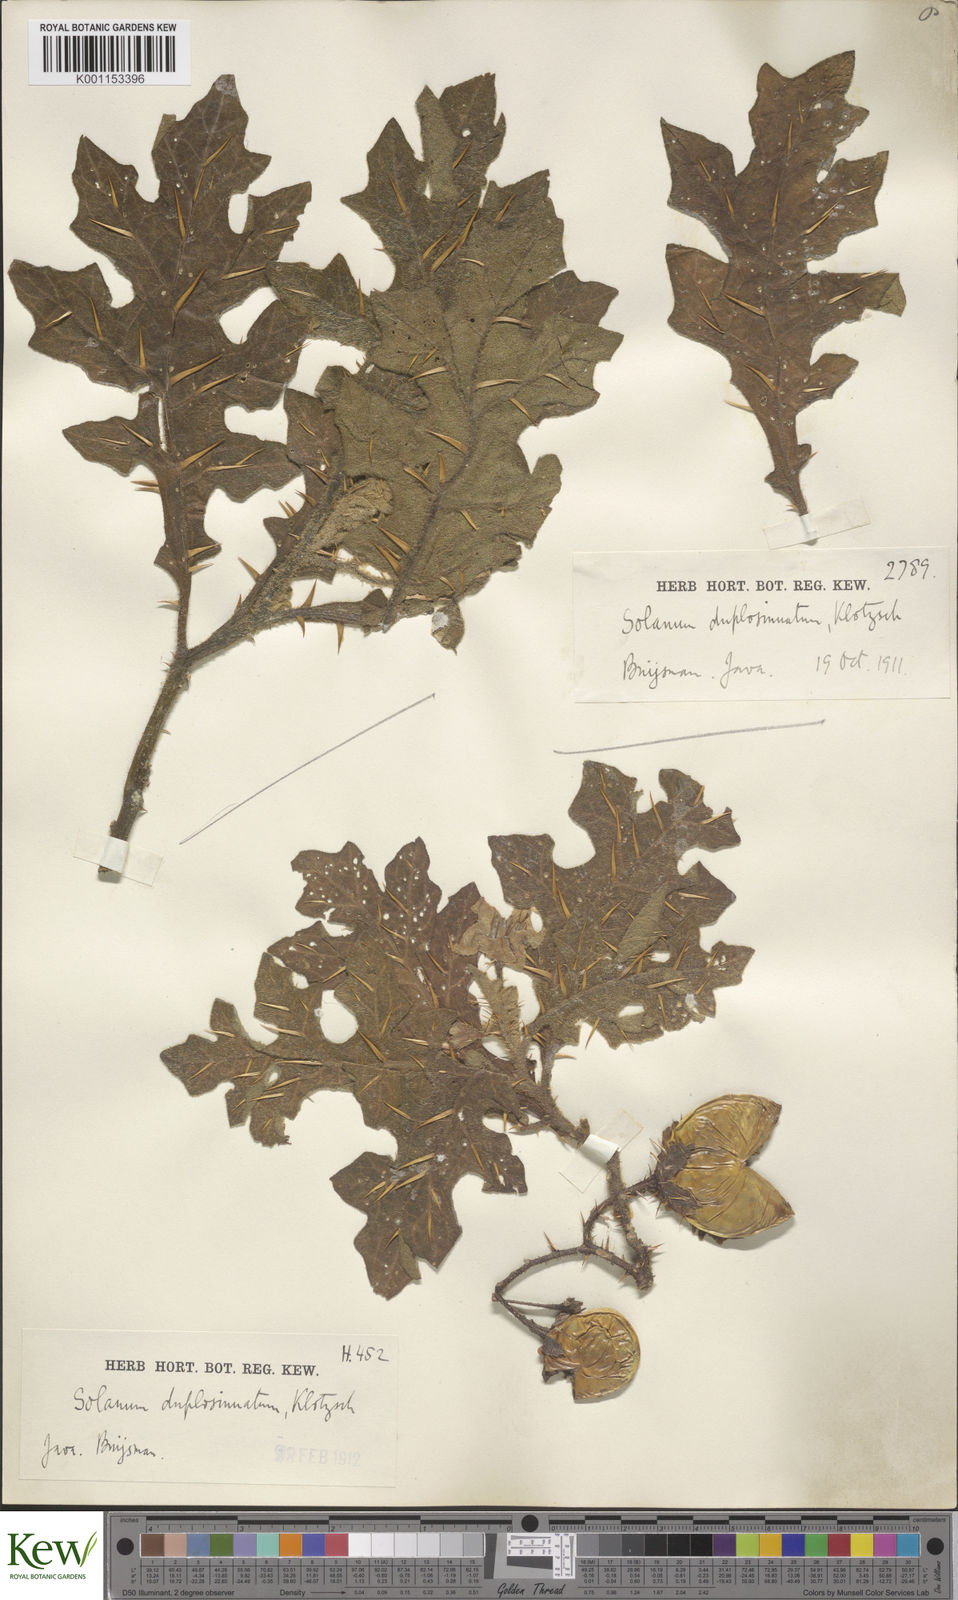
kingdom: Plantae
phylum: Tracheophyta
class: Magnoliopsida
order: Solanales
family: Solanaceae
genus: Solanum
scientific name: Solanum
